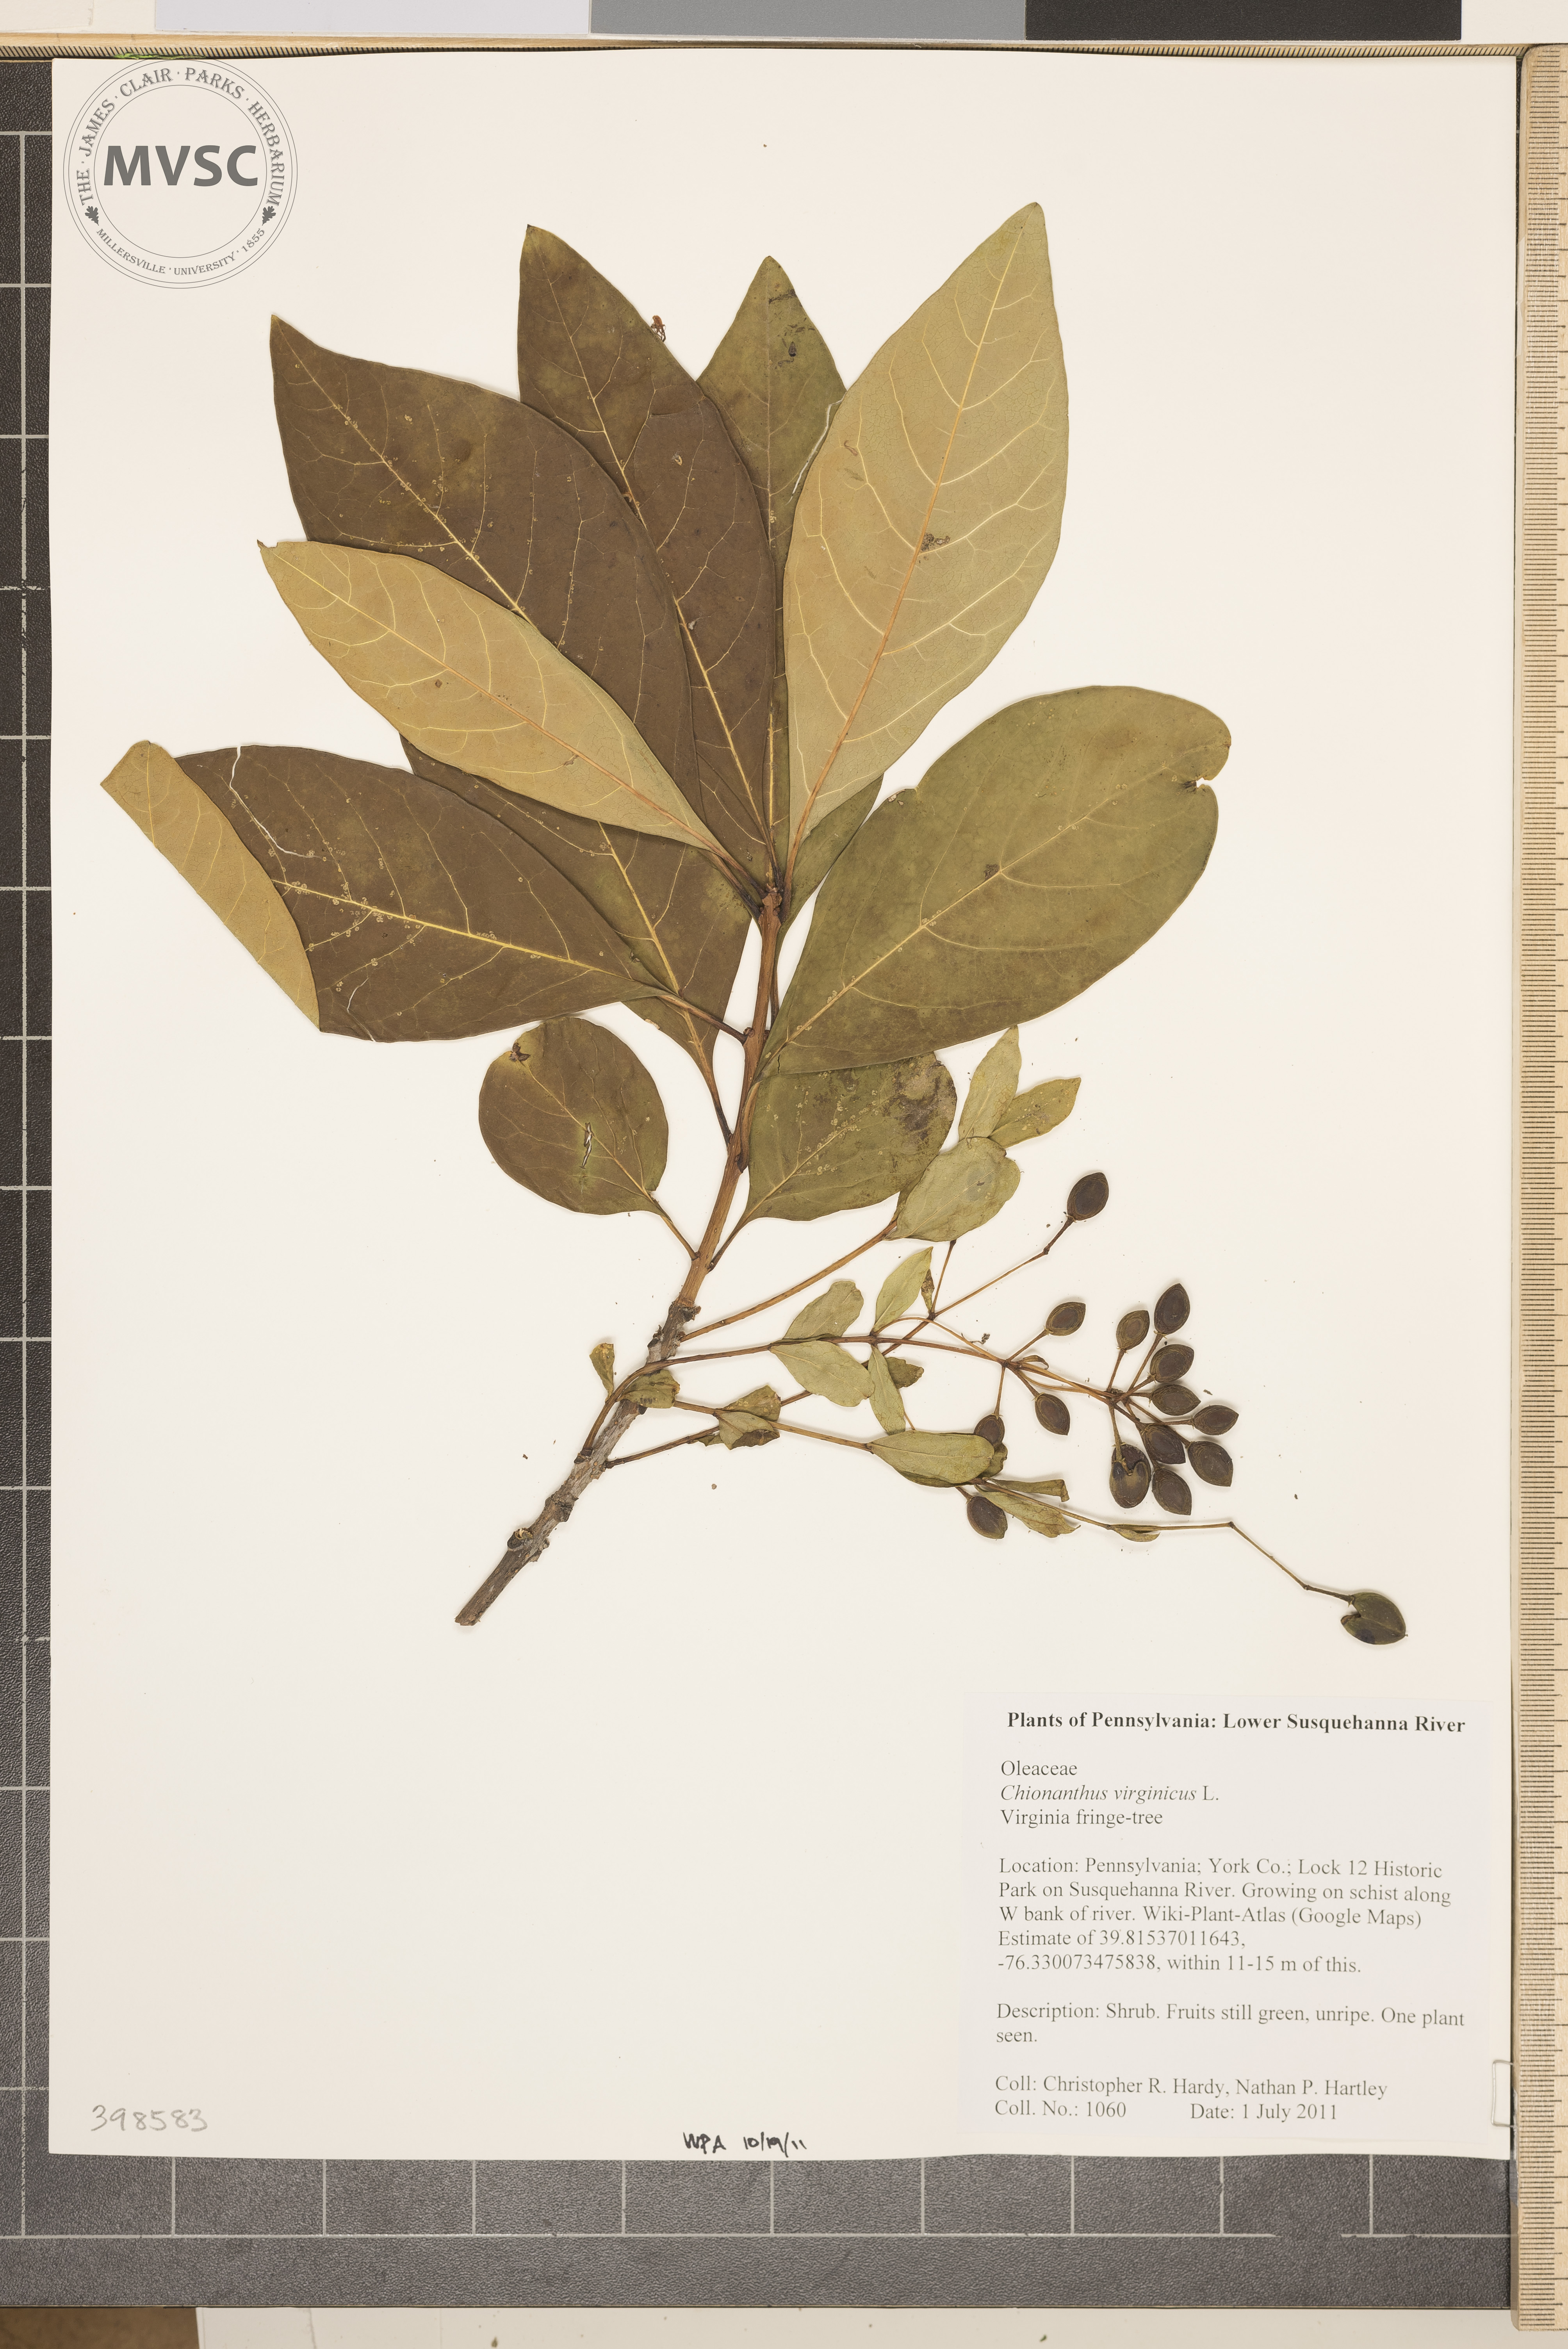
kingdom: Plantae
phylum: Tracheophyta
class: Magnoliopsida
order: Lamiales
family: Oleaceae
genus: Chionanthus
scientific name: Chionanthus virginicus
